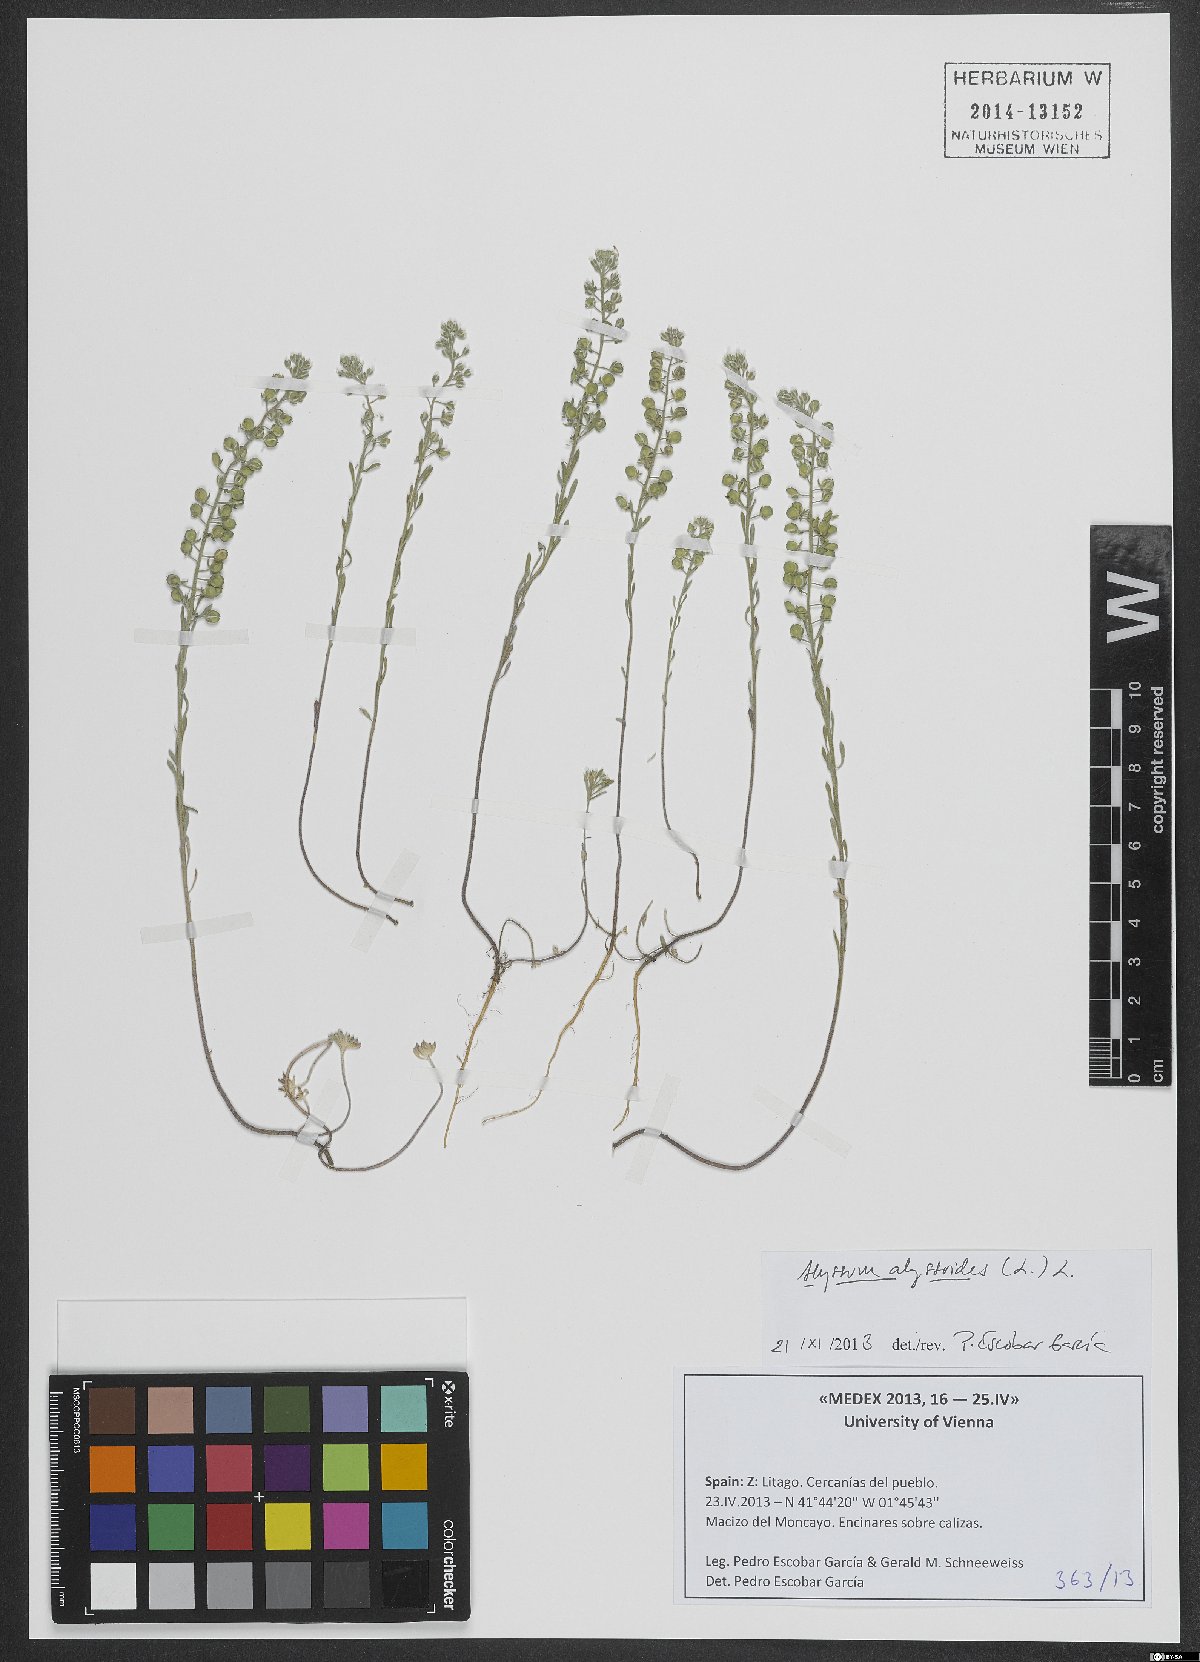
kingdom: Plantae
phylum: Tracheophyta
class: Magnoliopsida
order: Brassicales
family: Brassicaceae
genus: Alyssum
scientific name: Alyssum alyssoides
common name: Small alison
